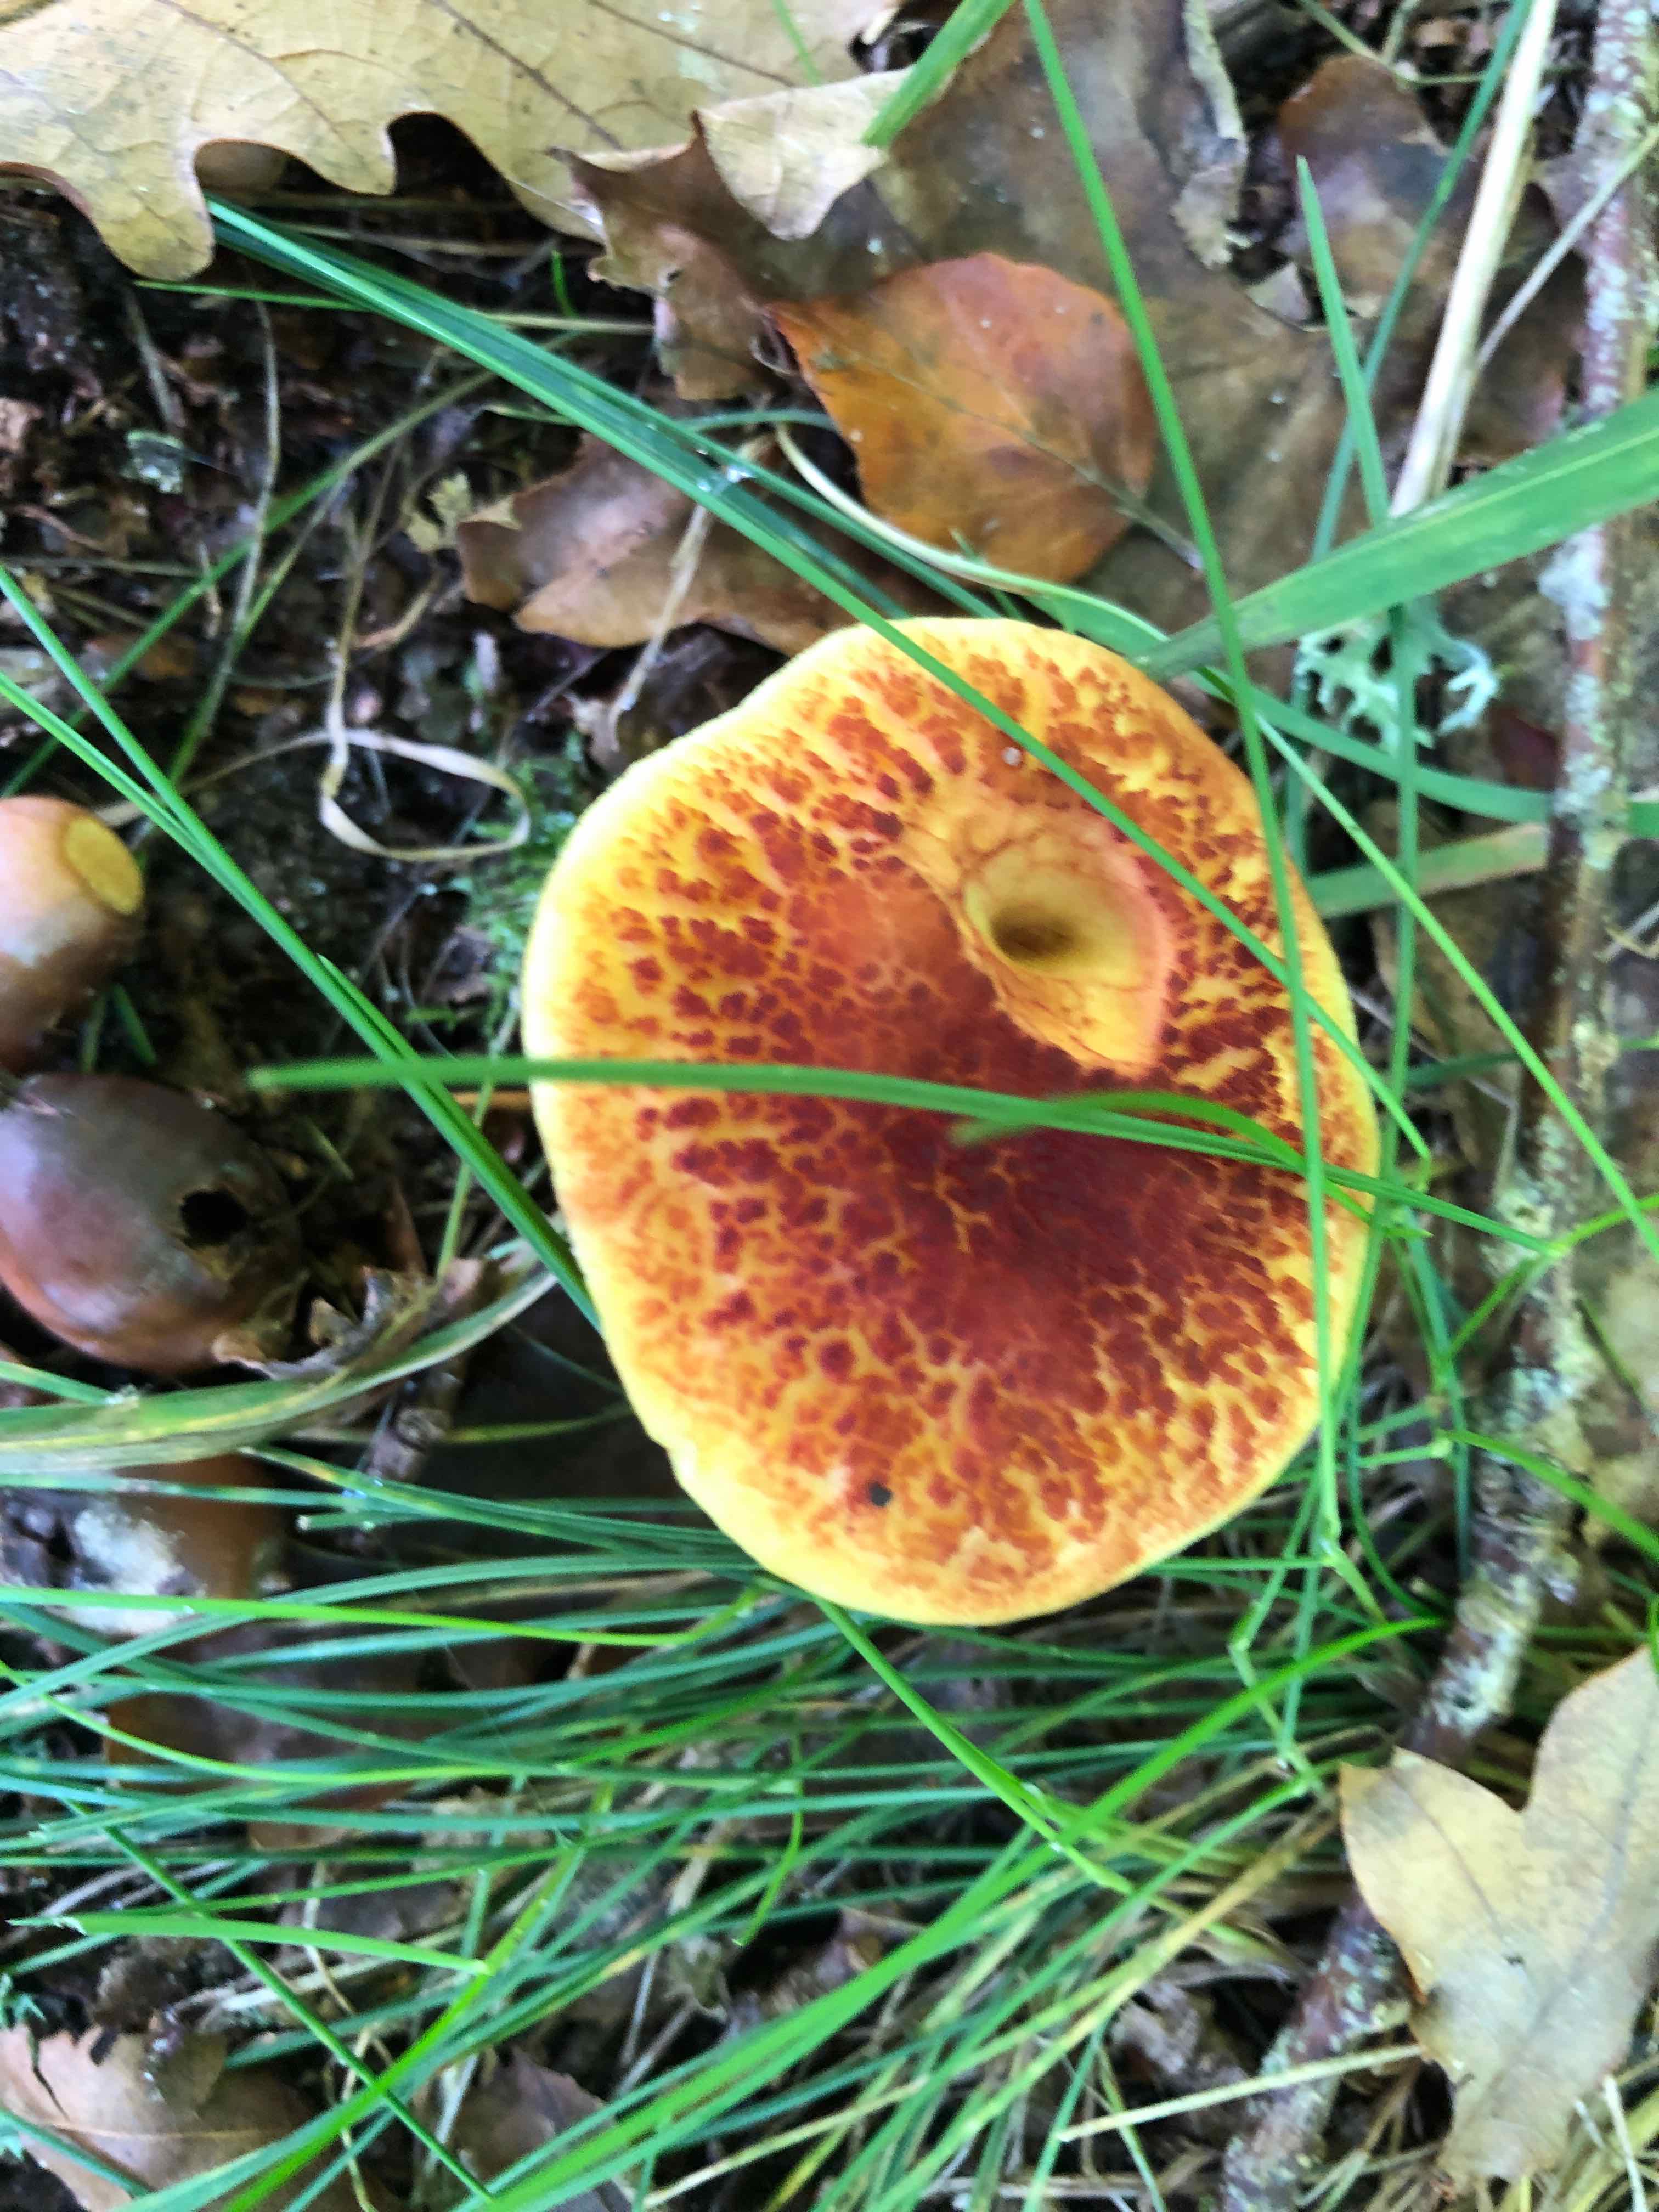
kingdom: Fungi
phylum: Basidiomycota
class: Agaricomycetes
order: Boletales
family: Boletaceae
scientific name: Boletaceae
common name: rørhatfamilien
